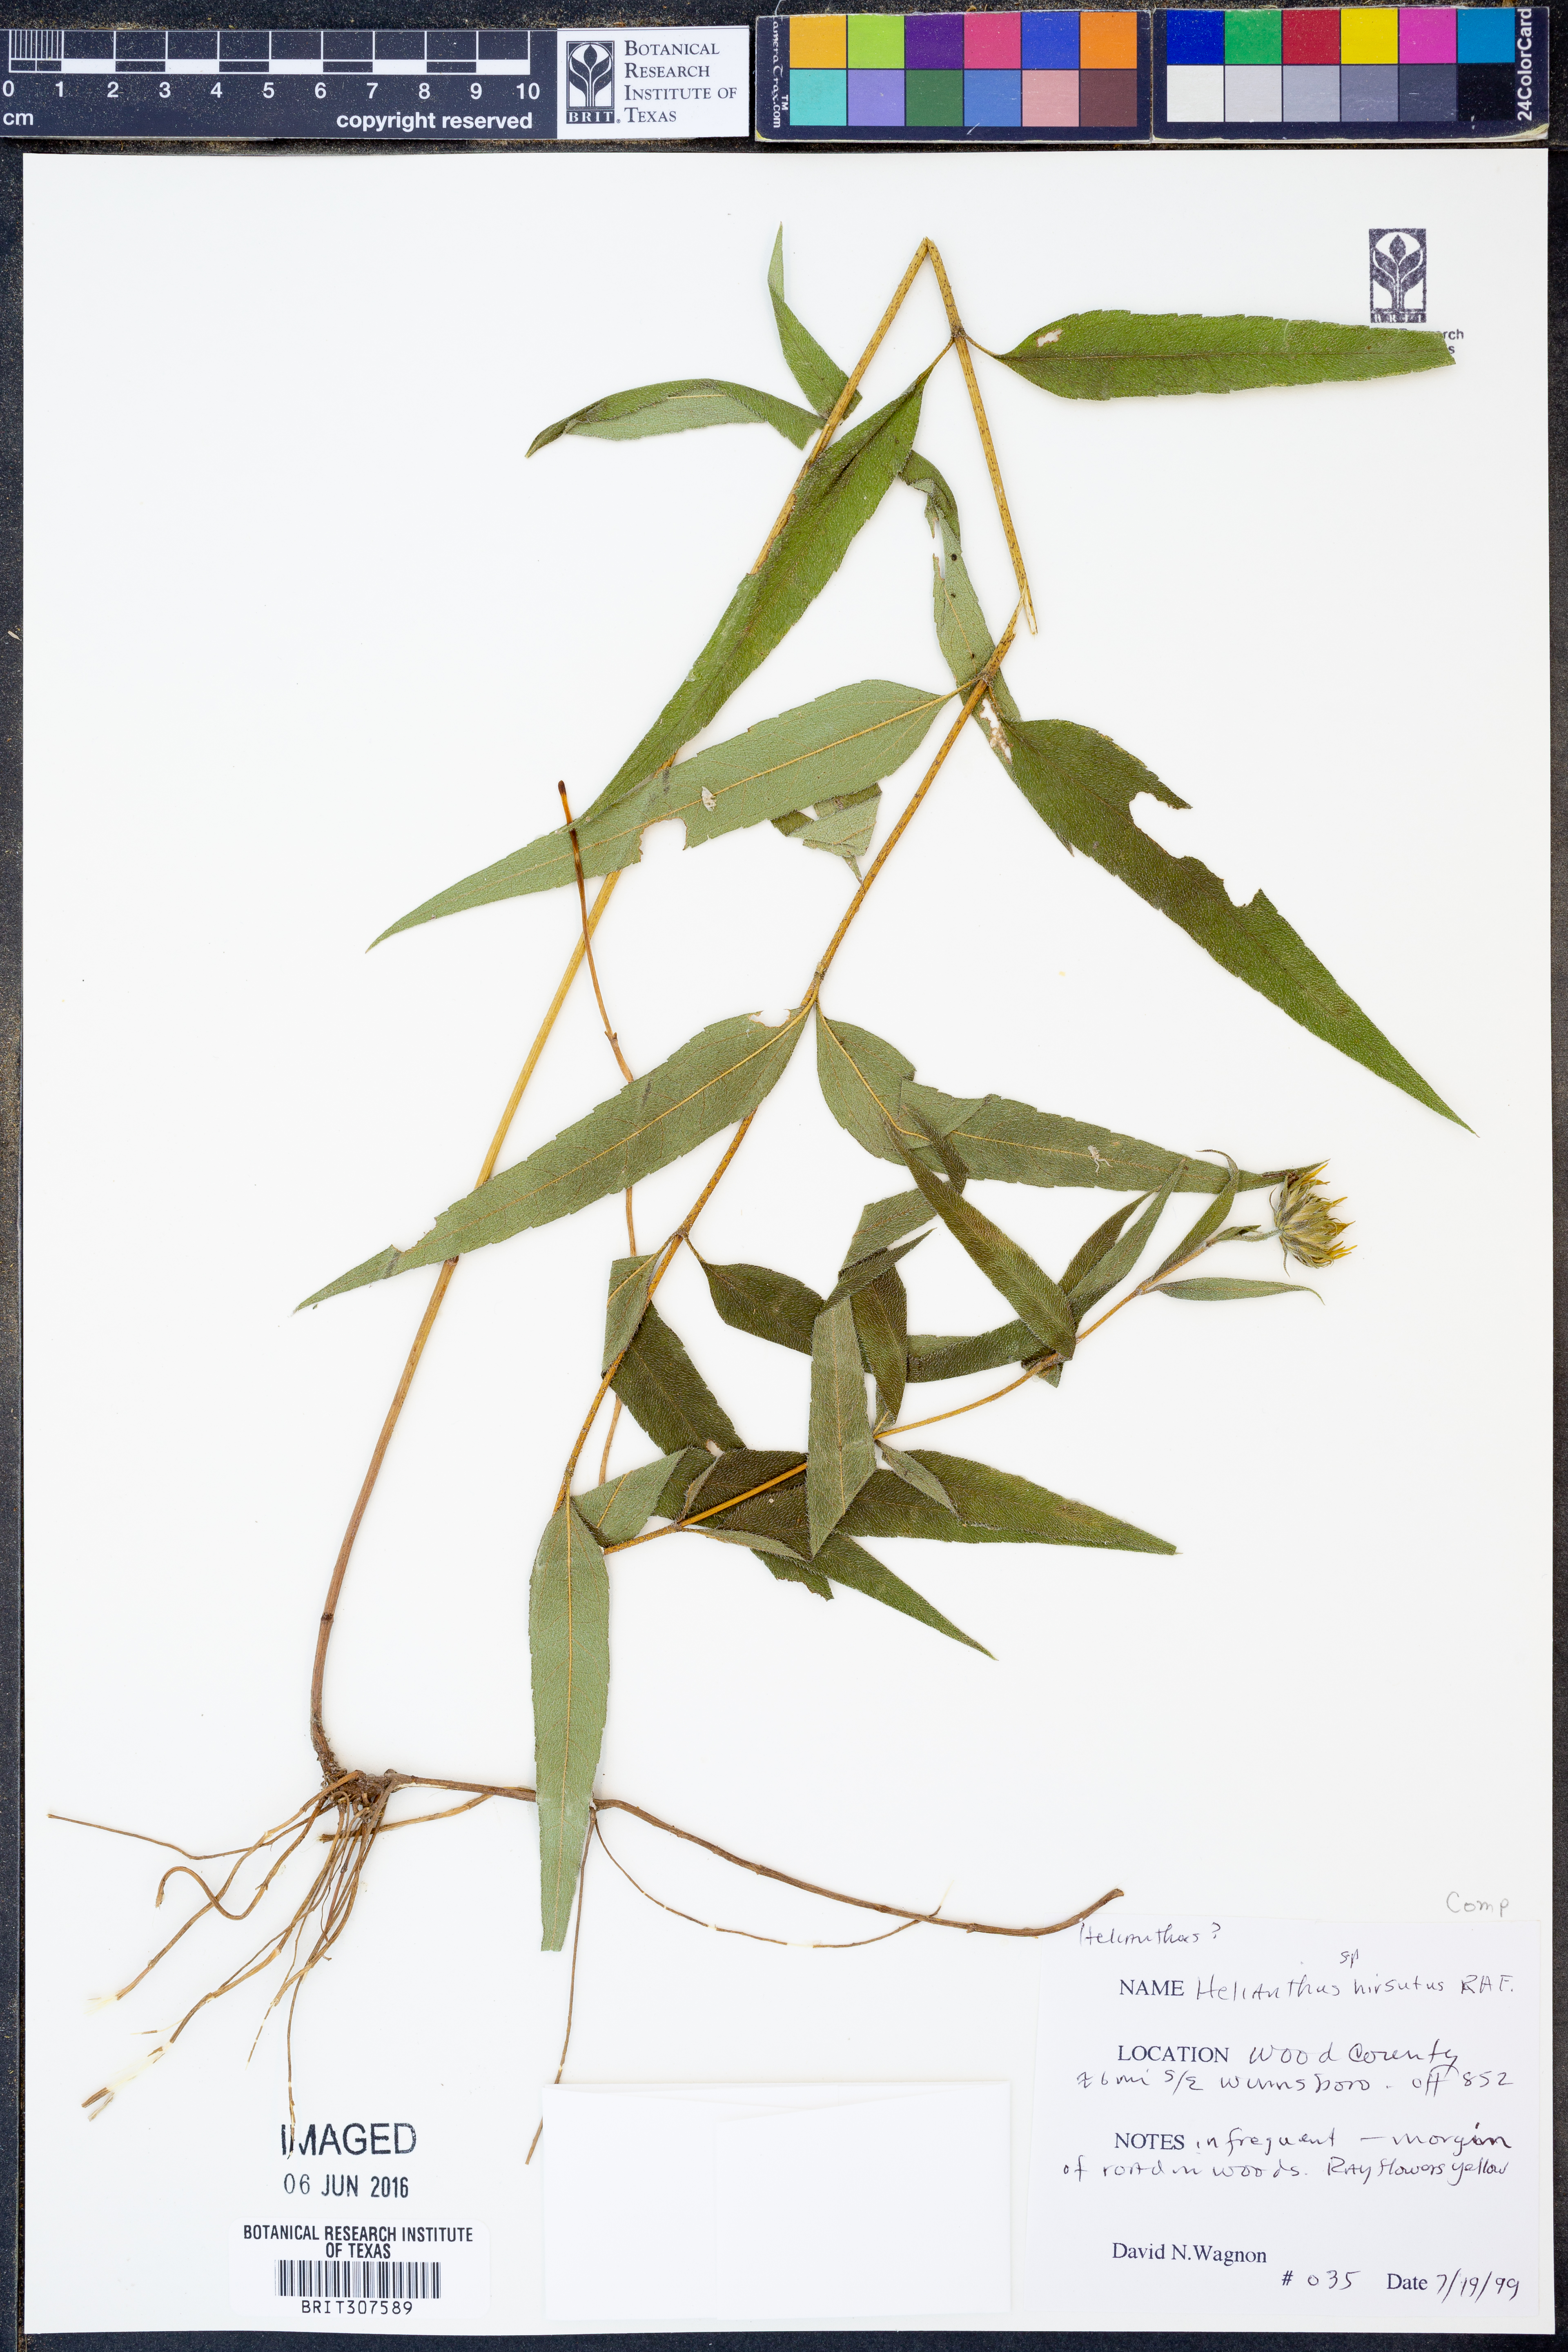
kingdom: Plantae
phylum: Tracheophyta
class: Magnoliopsida
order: Asterales
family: Asteraceae
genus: Helianthus
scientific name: Helianthus hirsutus
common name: Hairy sunflower
